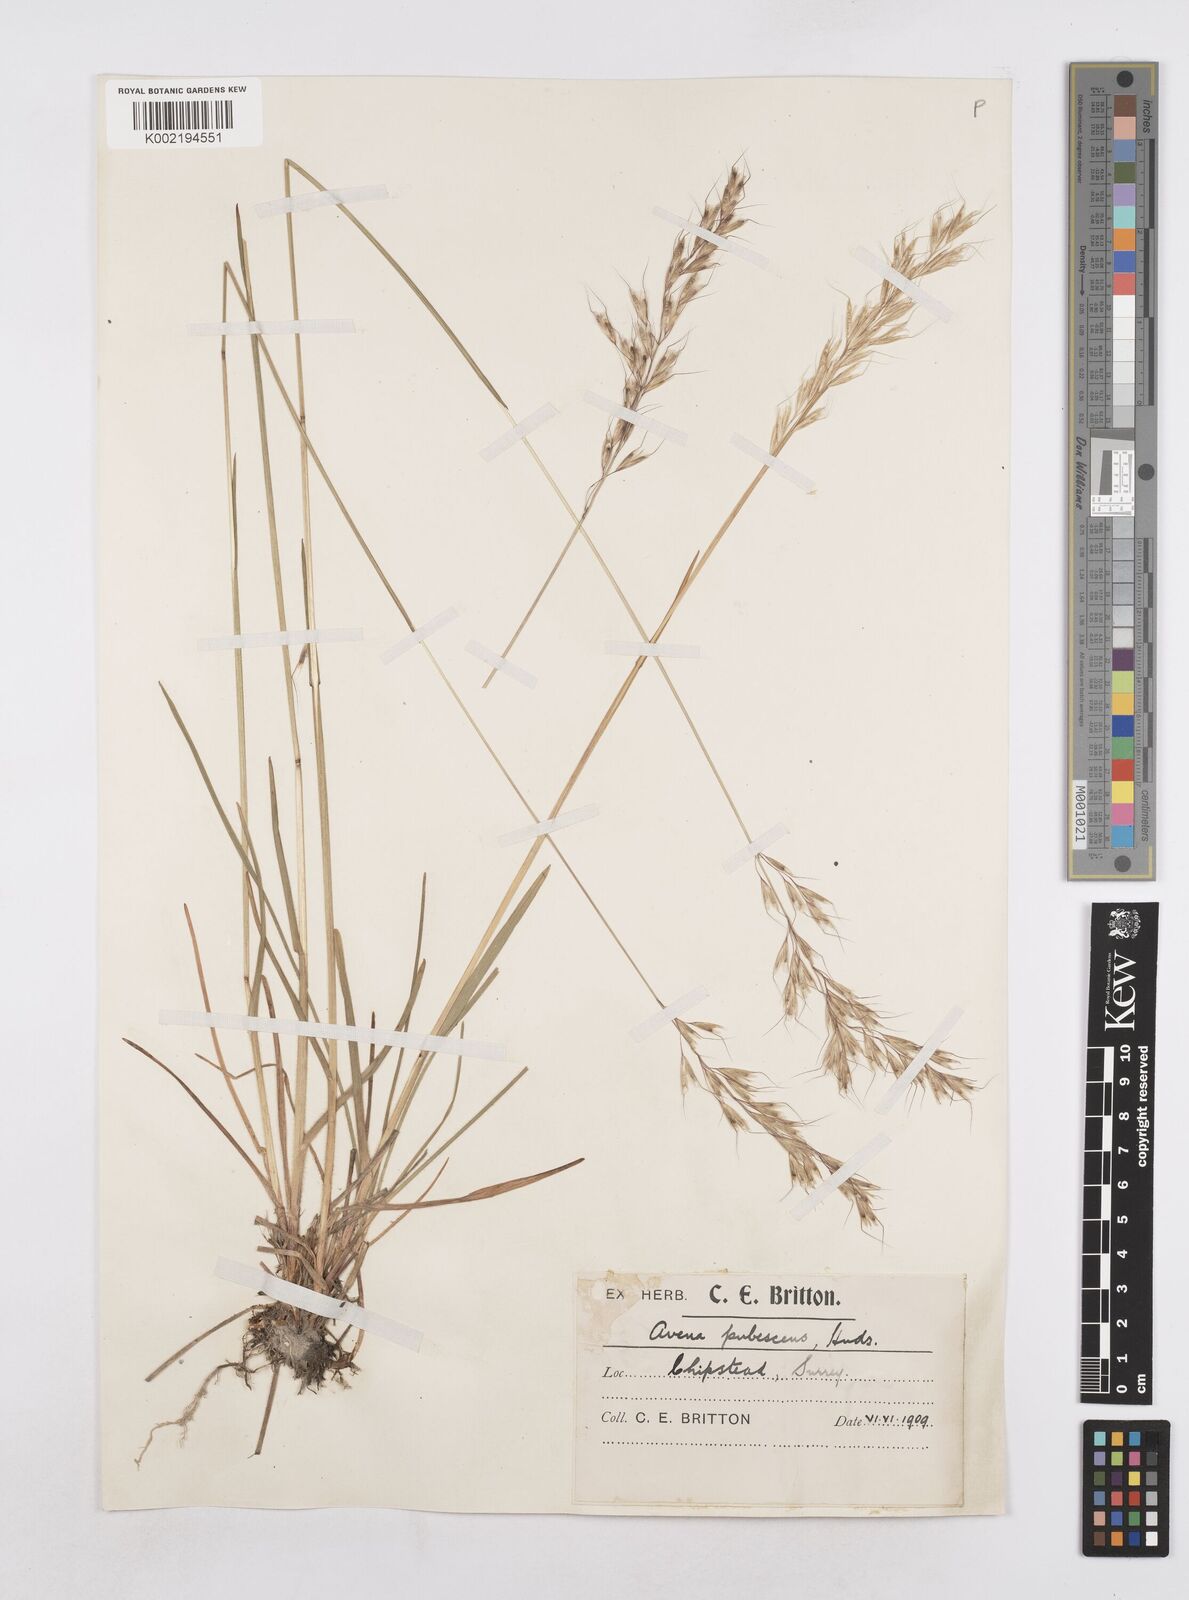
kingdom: Plantae
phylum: Tracheophyta
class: Liliopsida
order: Poales
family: Poaceae
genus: Avenula
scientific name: Avenula pubescens
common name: Downy alpine oatgrass
